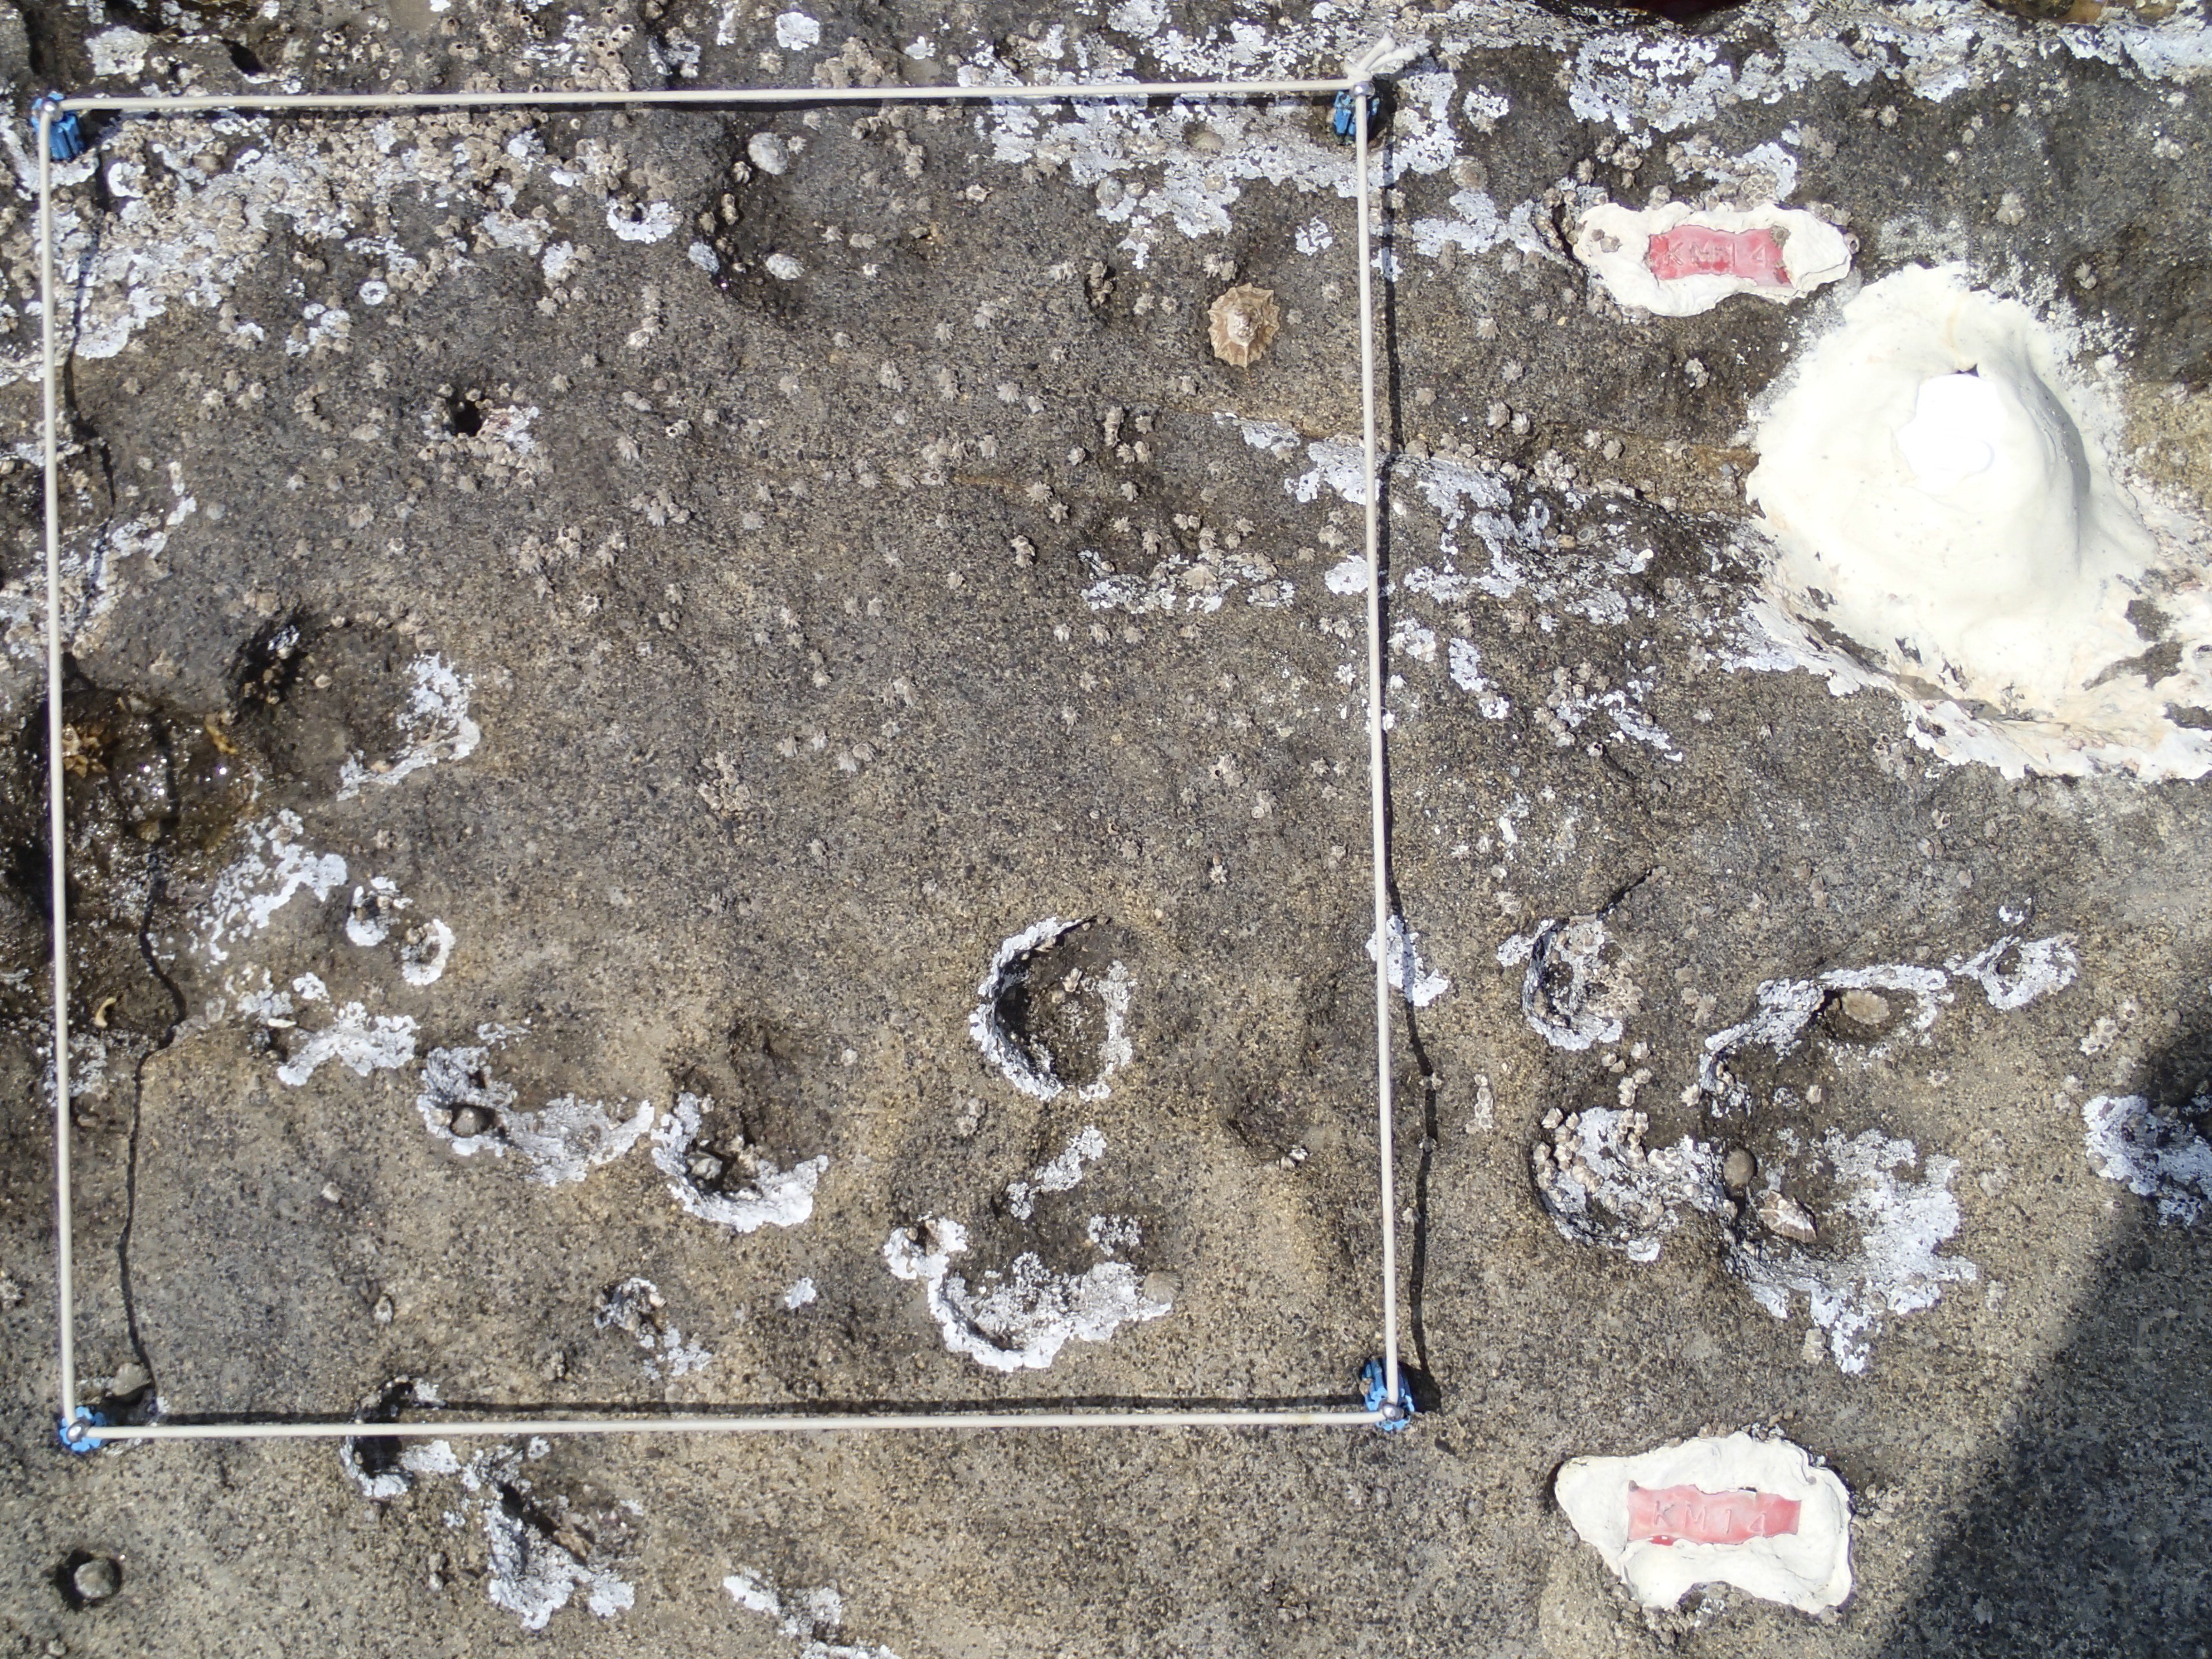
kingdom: Animalia
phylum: Arthropoda
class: Maxillopoda
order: Sessilia
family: Chthamalidae
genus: Chthamalus
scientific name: Chthamalus challengeri
